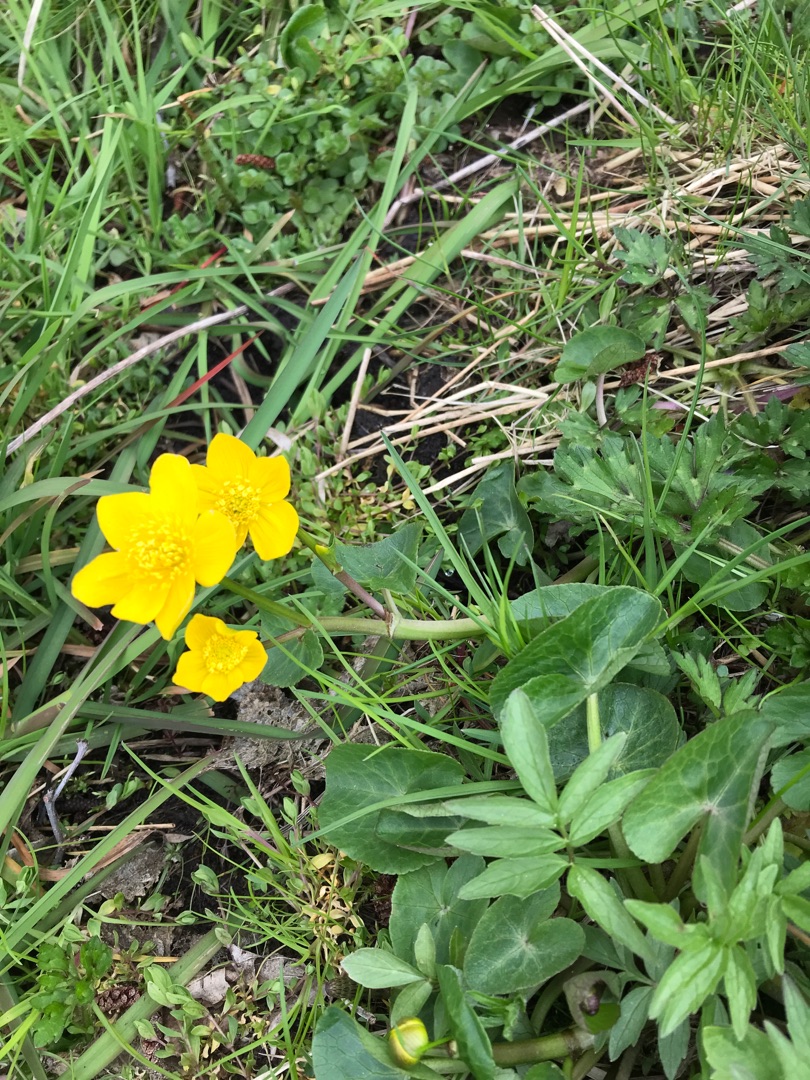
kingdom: Plantae
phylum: Tracheophyta
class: Magnoliopsida
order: Ranunculales
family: Ranunculaceae
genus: Caltha
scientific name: Caltha palustris
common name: Eng-kabbeleje
